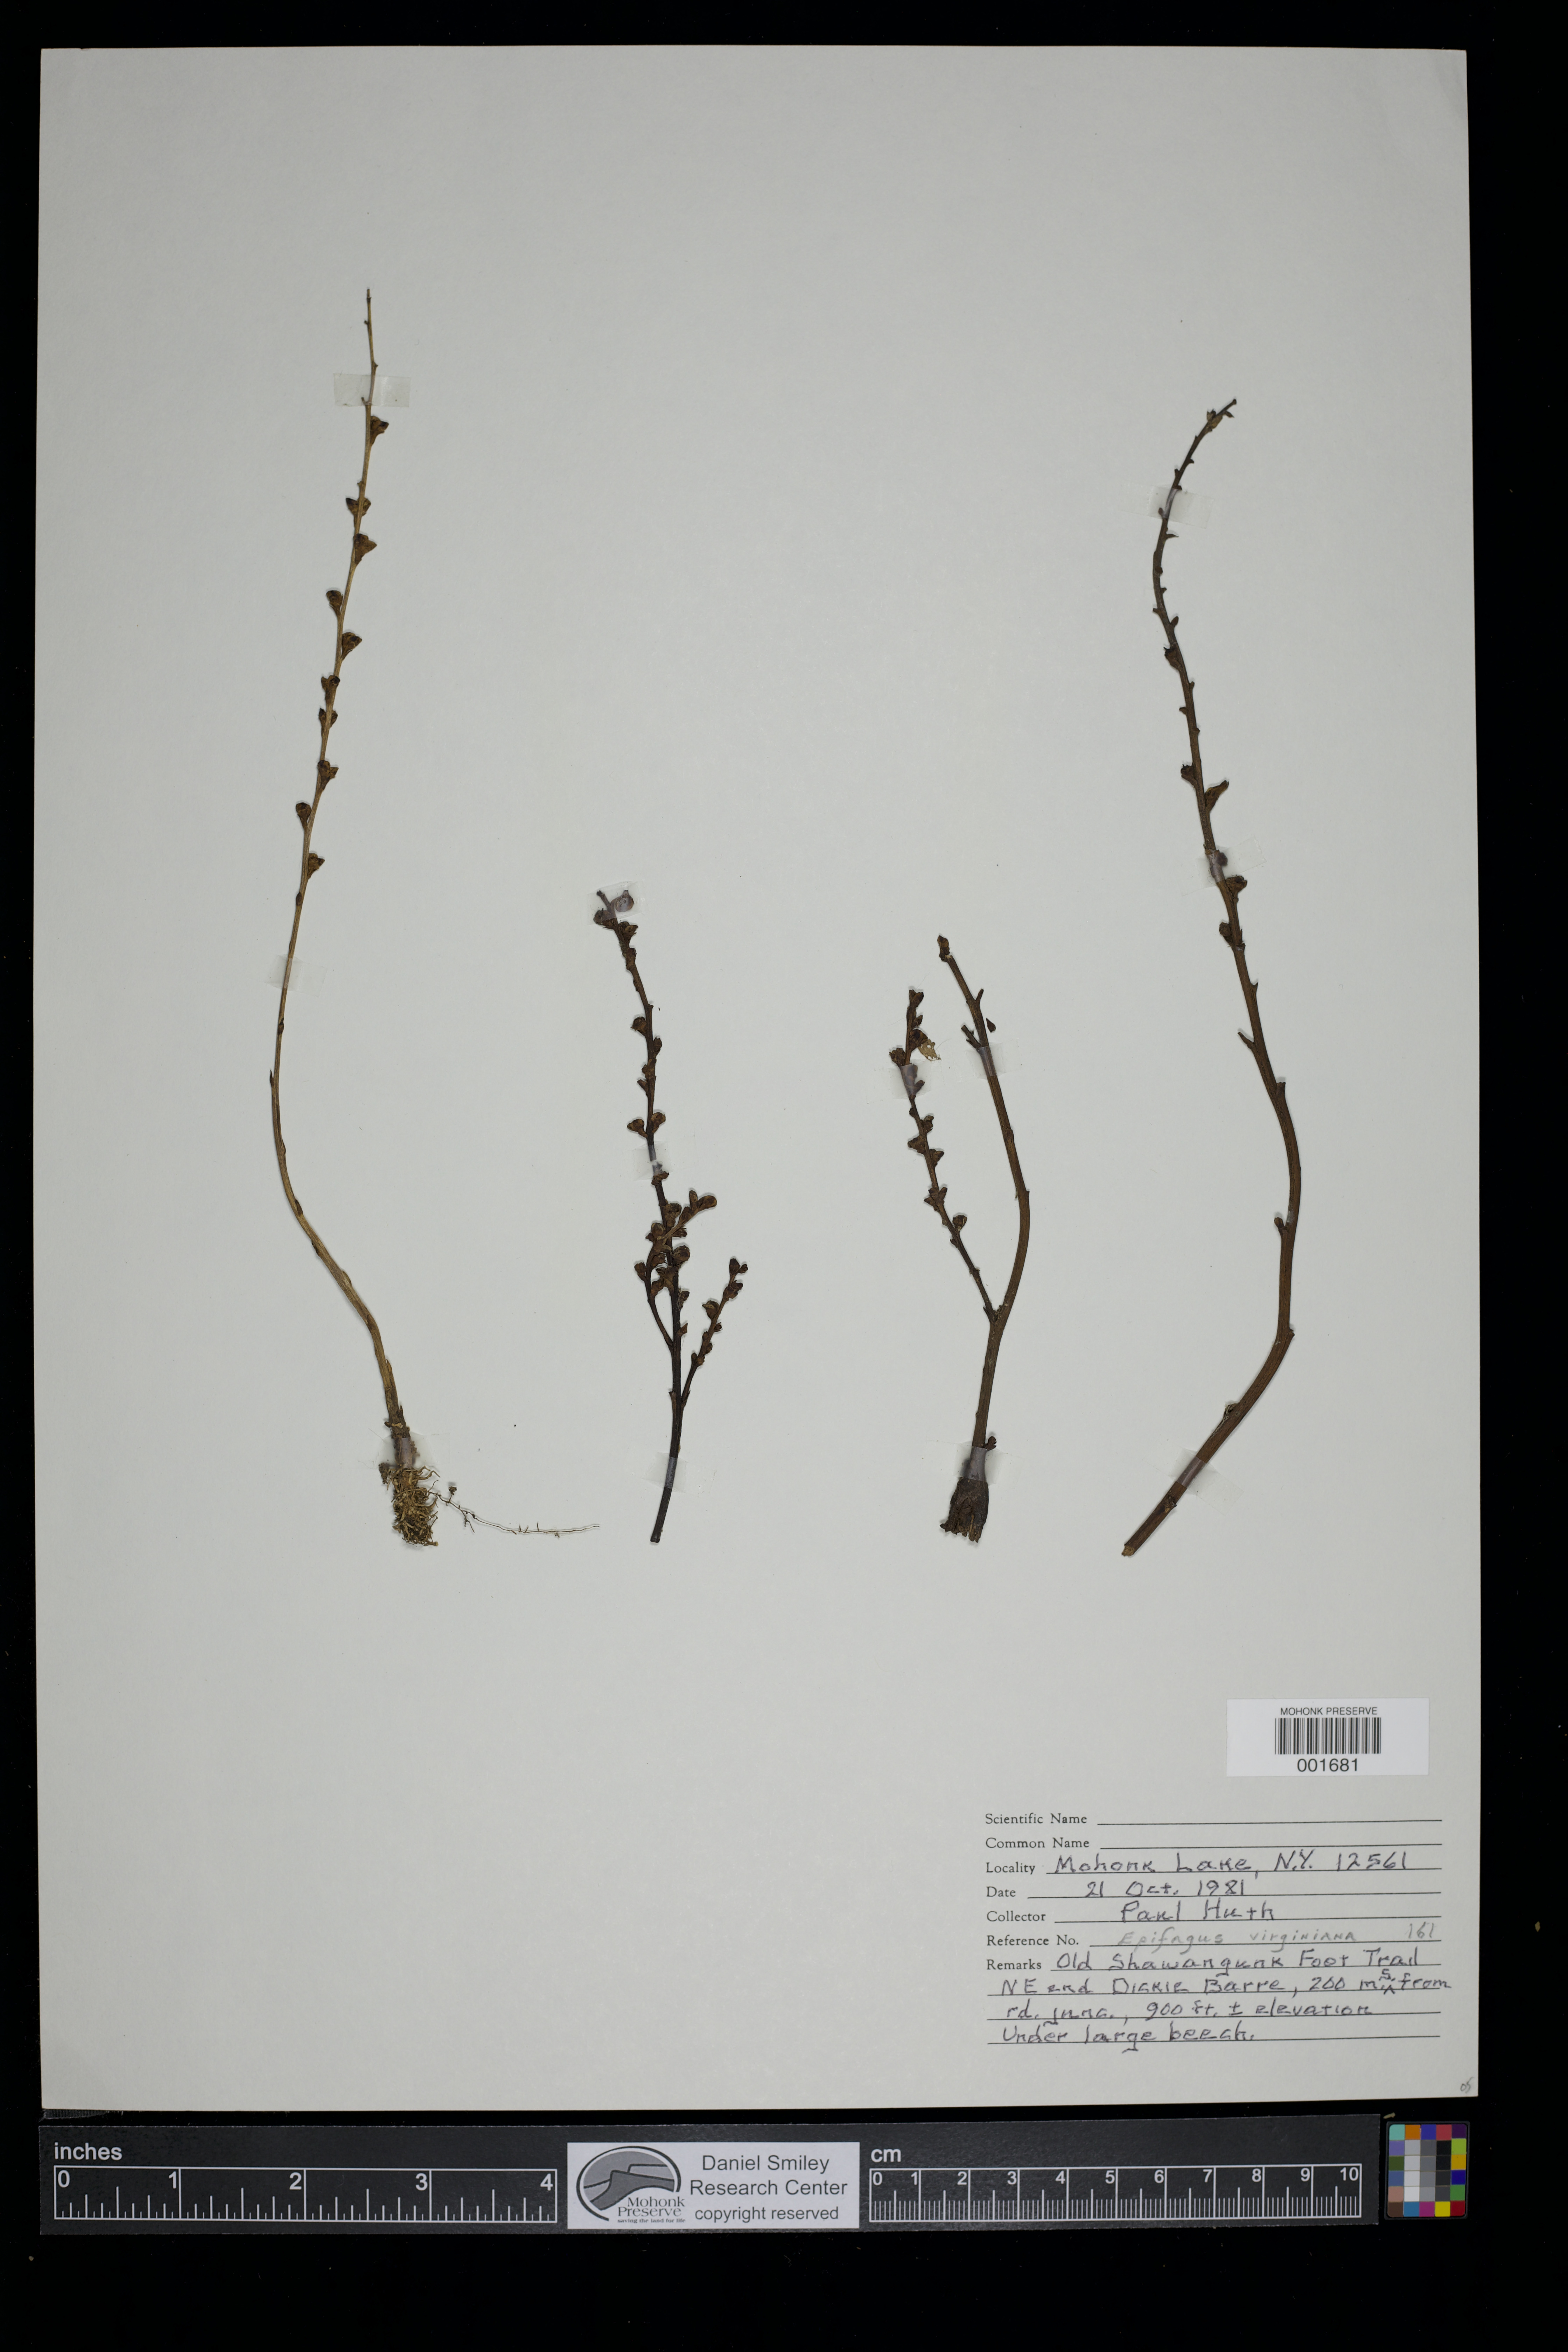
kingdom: Plantae
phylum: Tracheophyta
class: Magnoliopsida
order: Lamiales
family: Orobanchaceae
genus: Epifagus
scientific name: Epifagus virginiana
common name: Beechdrops
